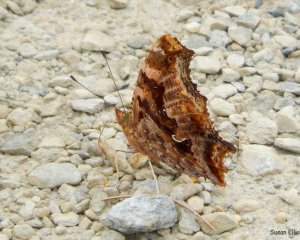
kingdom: Animalia
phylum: Arthropoda
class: Insecta
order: Lepidoptera
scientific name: Lepidoptera
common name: Butterflies
